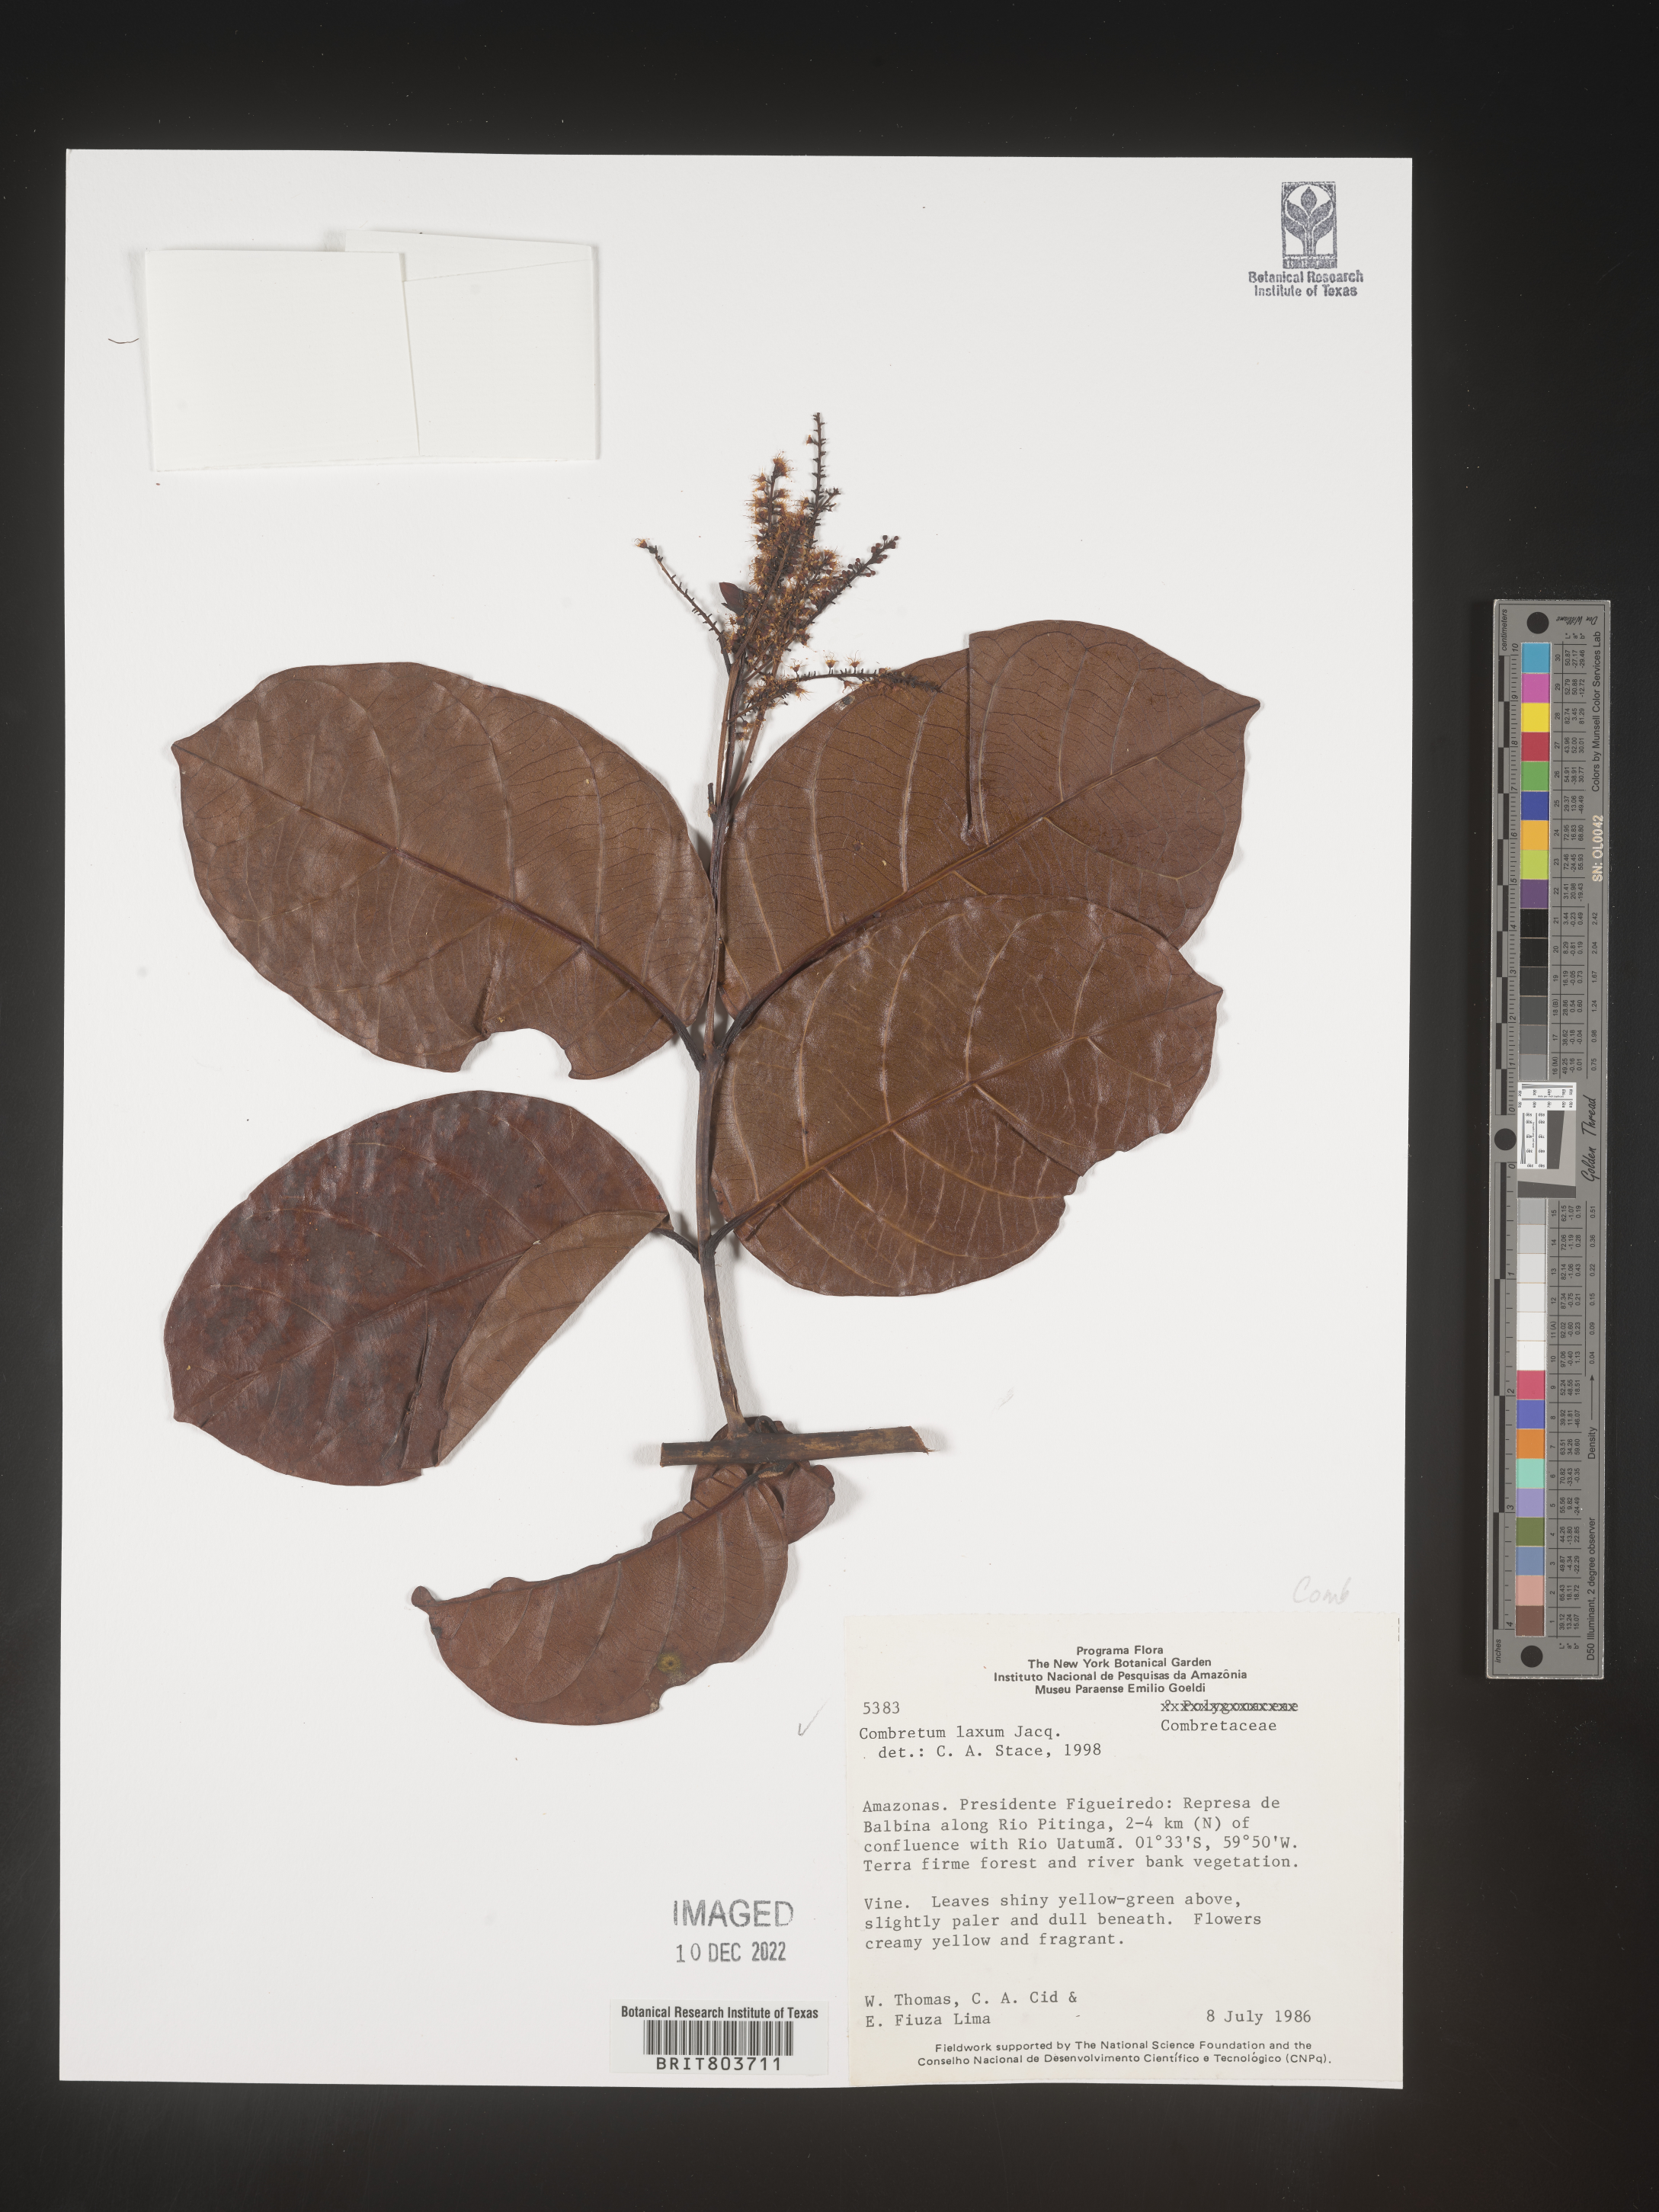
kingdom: Plantae
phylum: Tracheophyta
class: Magnoliopsida
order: Myrtales
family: Combretaceae
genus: Combretum
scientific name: Combretum
